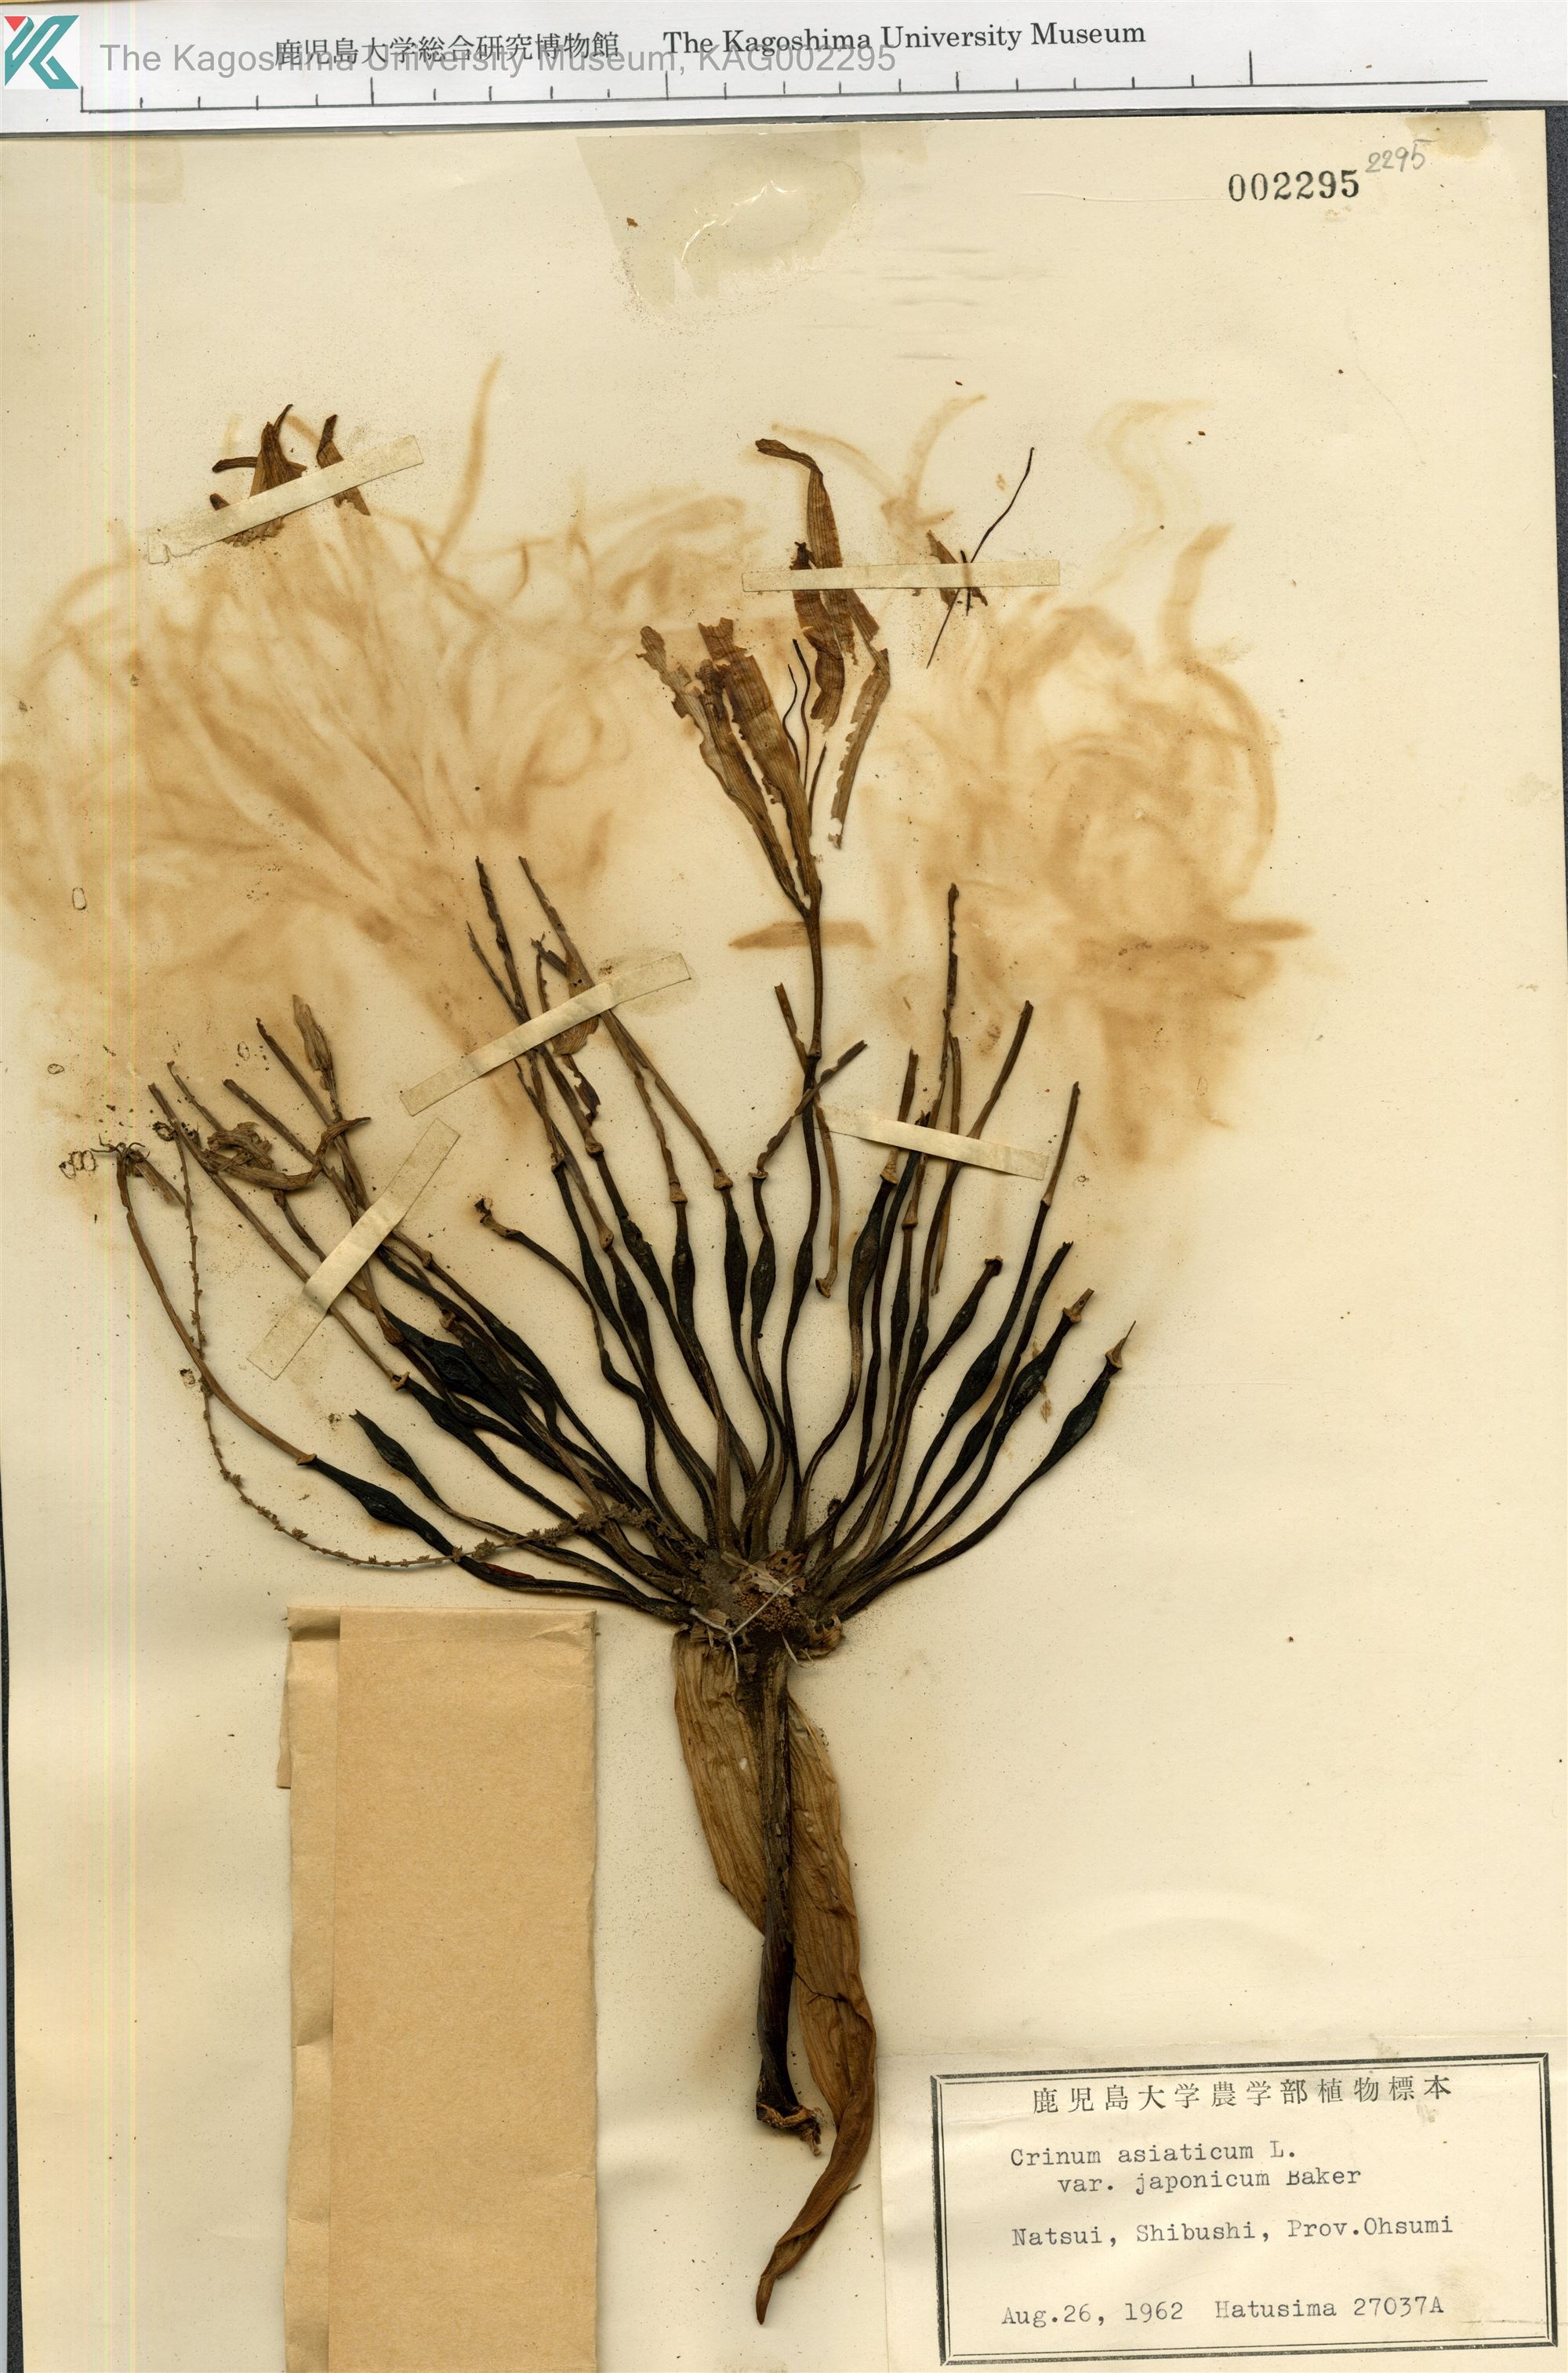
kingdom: Plantae
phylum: Tracheophyta
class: Liliopsida
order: Asparagales
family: Amaryllidaceae
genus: Crinum
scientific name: Crinum asiaticum
